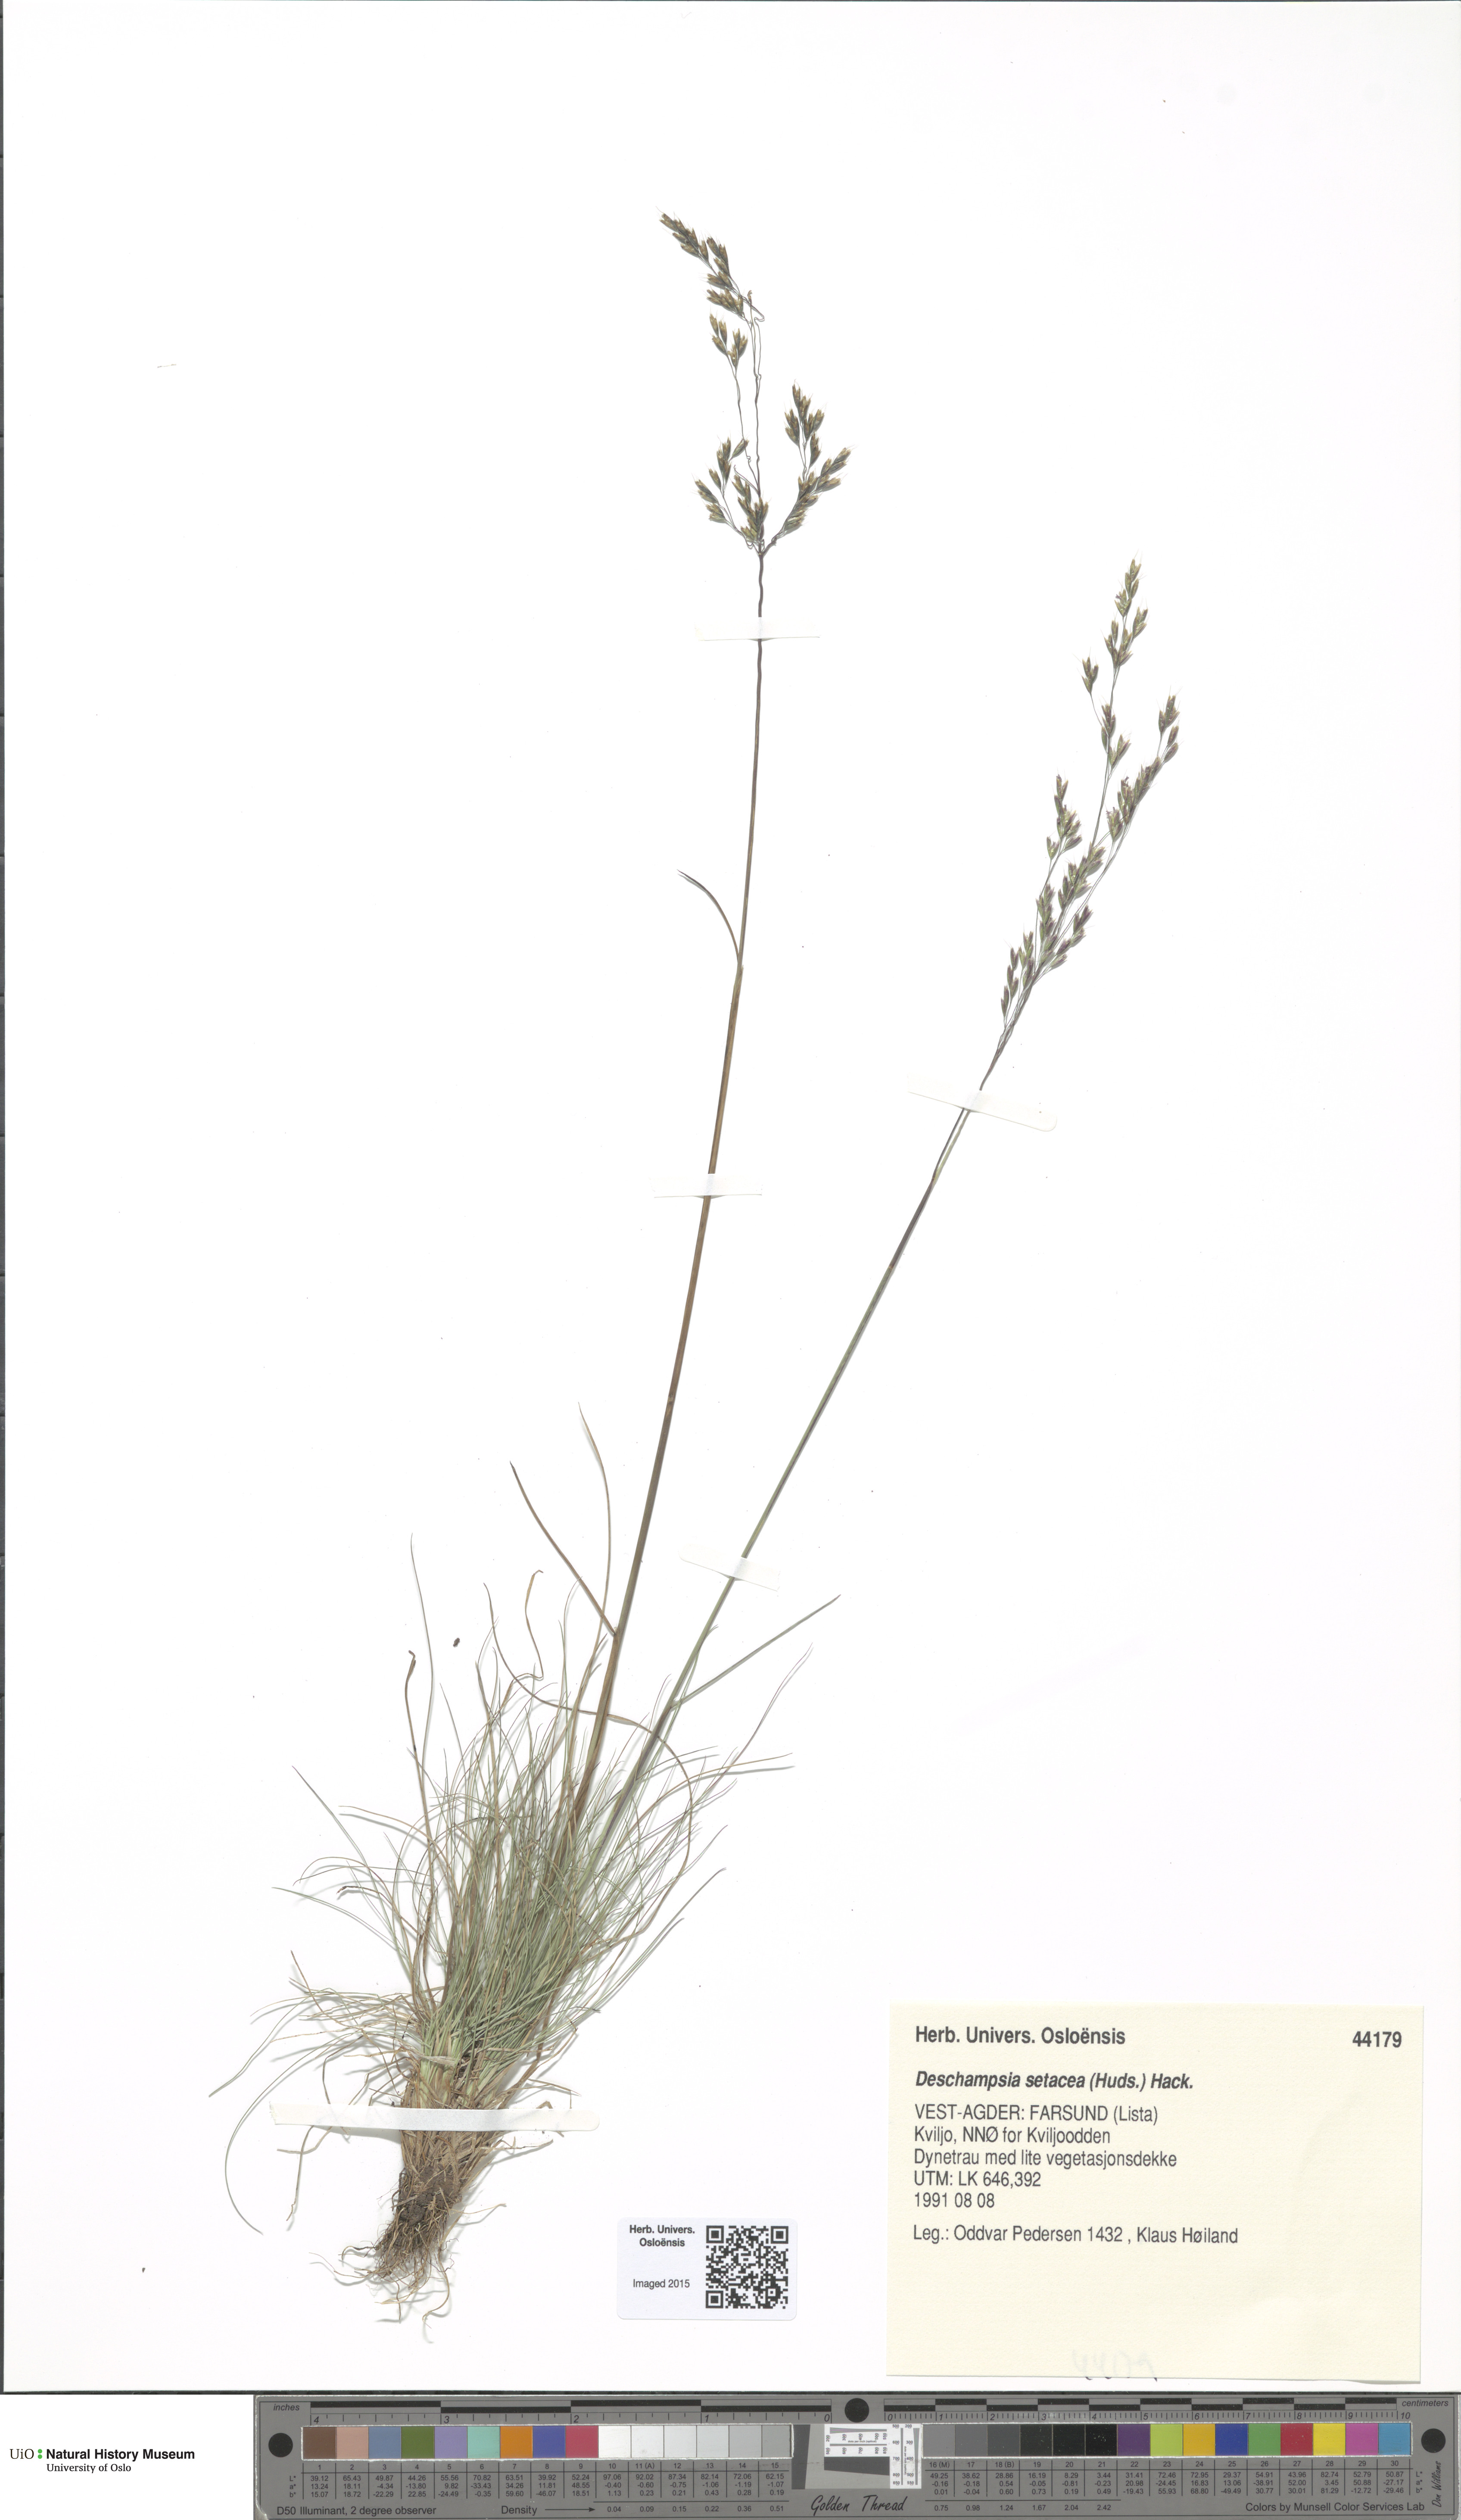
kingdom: Plantae
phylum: Tracheophyta
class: Liliopsida
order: Poales
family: Poaceae
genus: Deschampsia
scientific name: Deschampsia setacea
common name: Bog hair-grass
